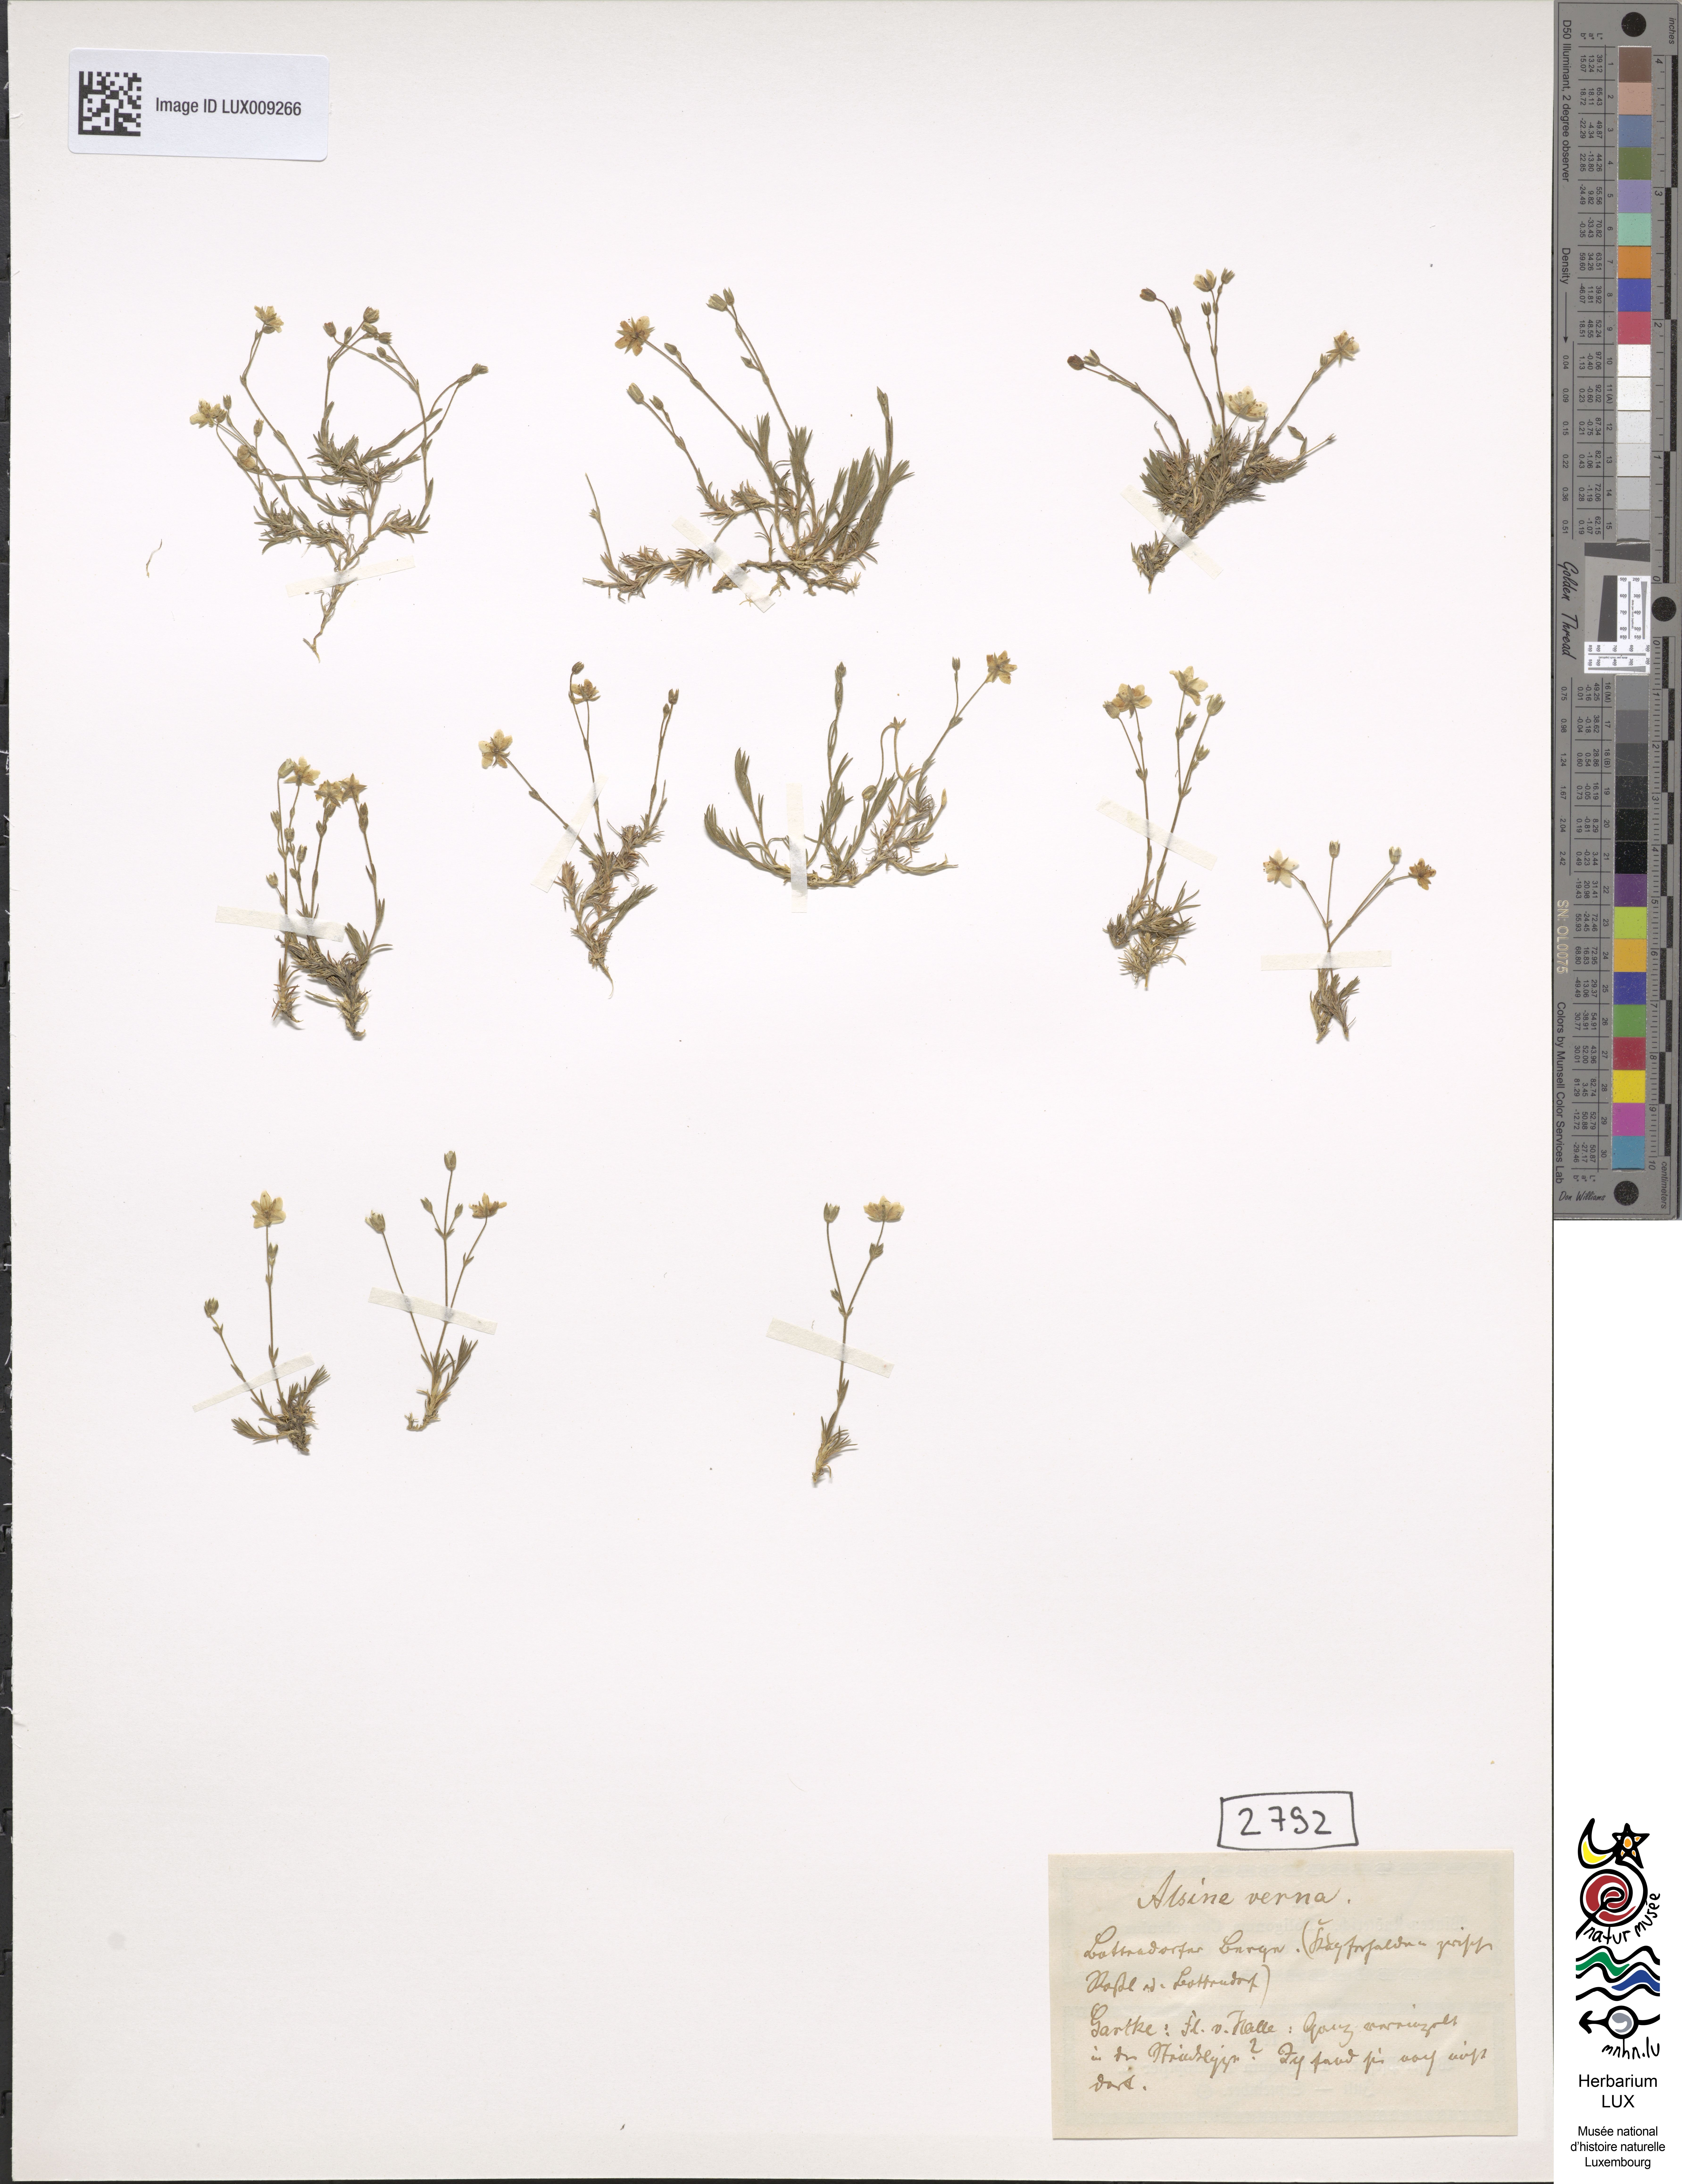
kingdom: Plantae
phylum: Tracheophyta
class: Magnoliopsida
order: Caryophyllales
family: Caryophyllaceae
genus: Sabulina
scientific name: Sabulina verna
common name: Spring sandwort
